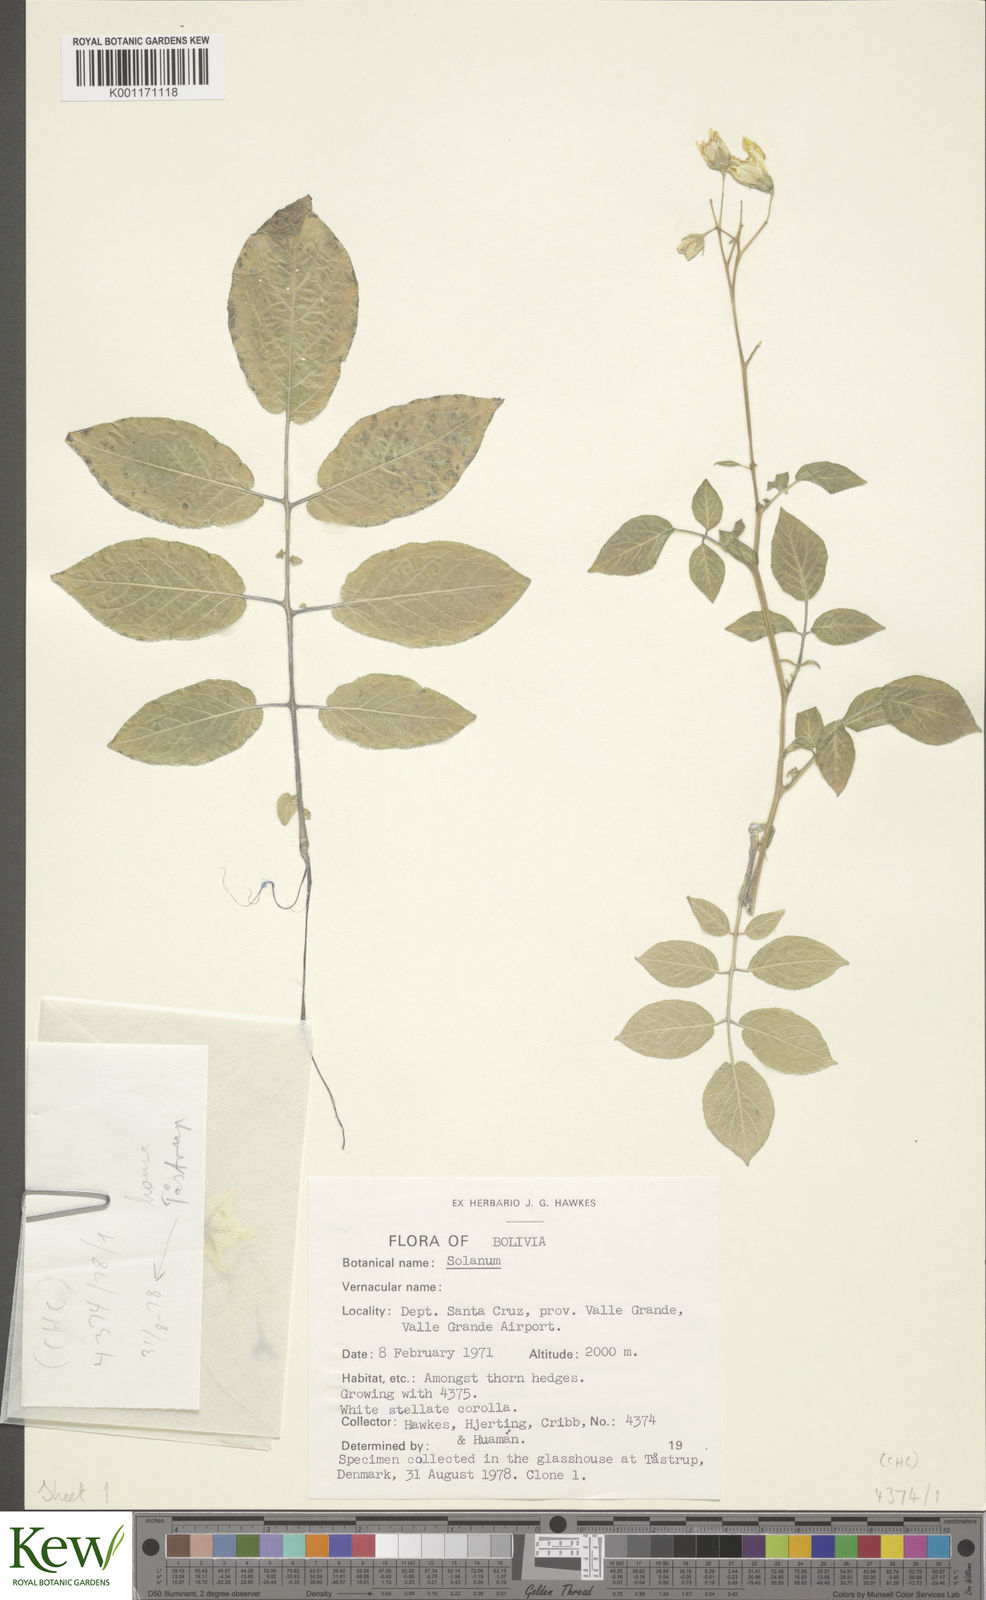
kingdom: Plantae
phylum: Tracheophyta
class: Magnoliopsida
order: Solanales
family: Solanaceae
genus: Solanum
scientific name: Solanum chacoense
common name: Chaco potato
